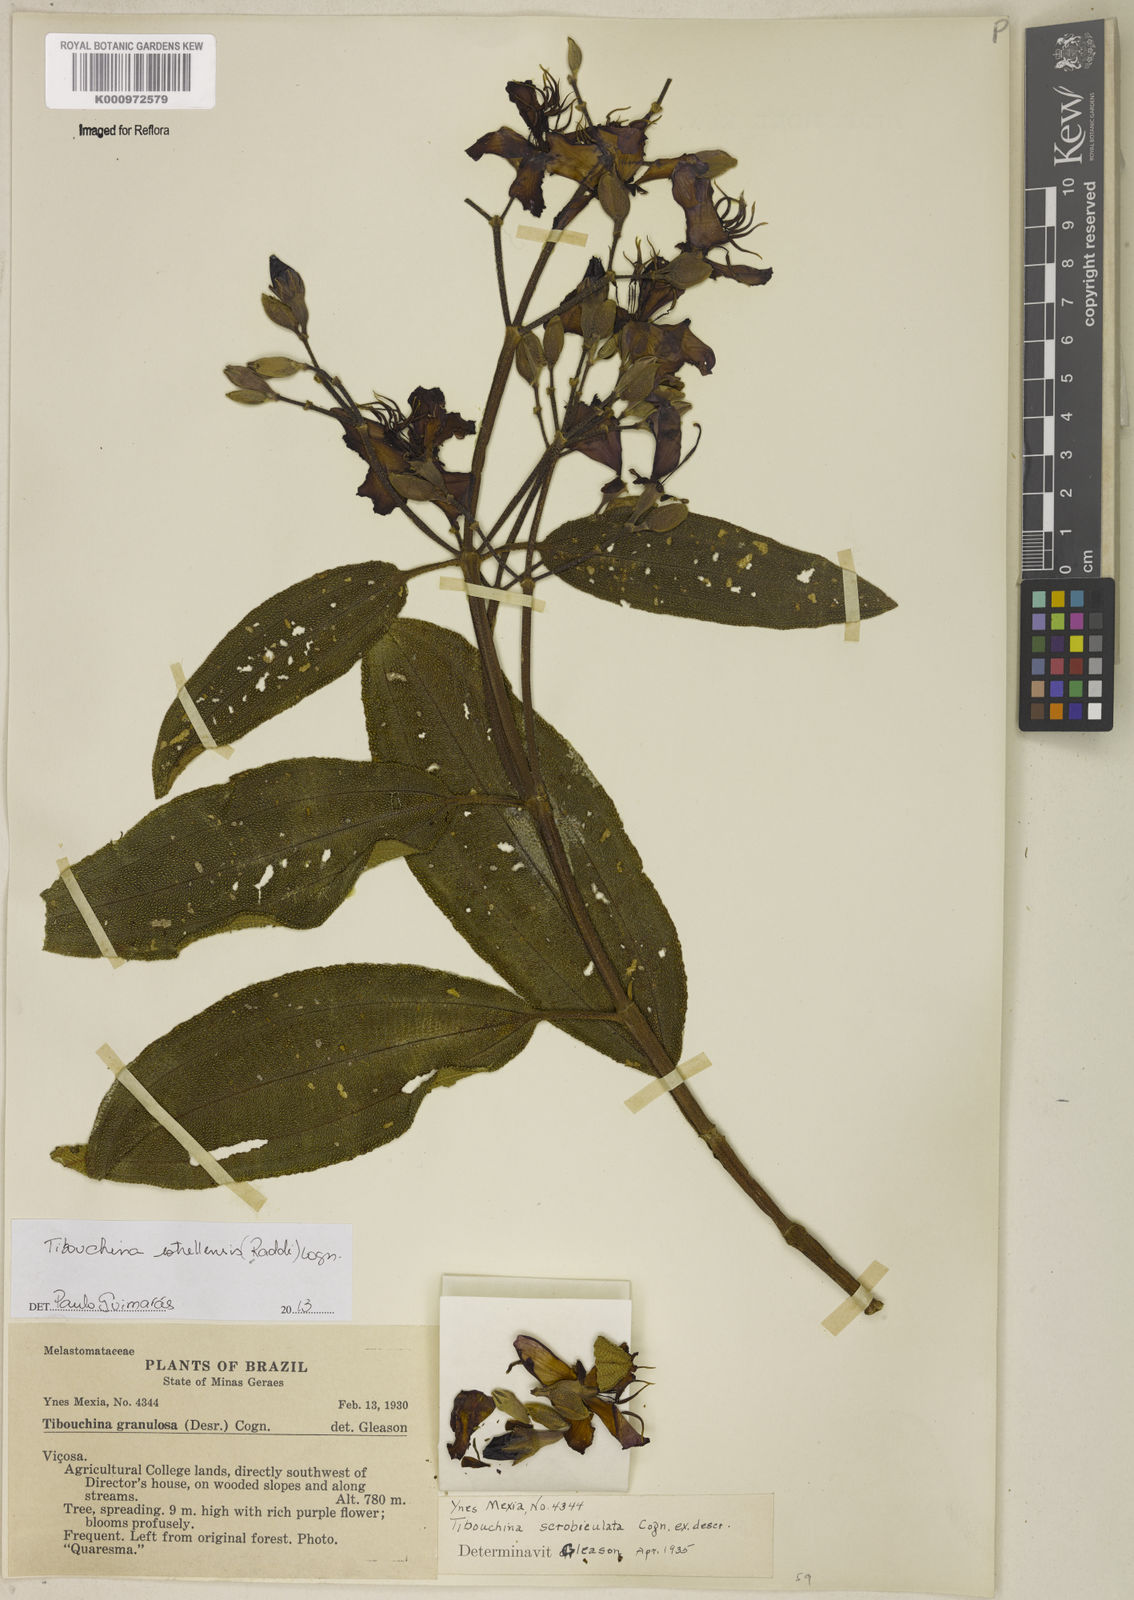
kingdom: Plantae
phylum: Tracheophyta
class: Magnoliopsida
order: Myrtales
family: Melastomataceae
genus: Pleroma
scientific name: Pleroma estrellense
